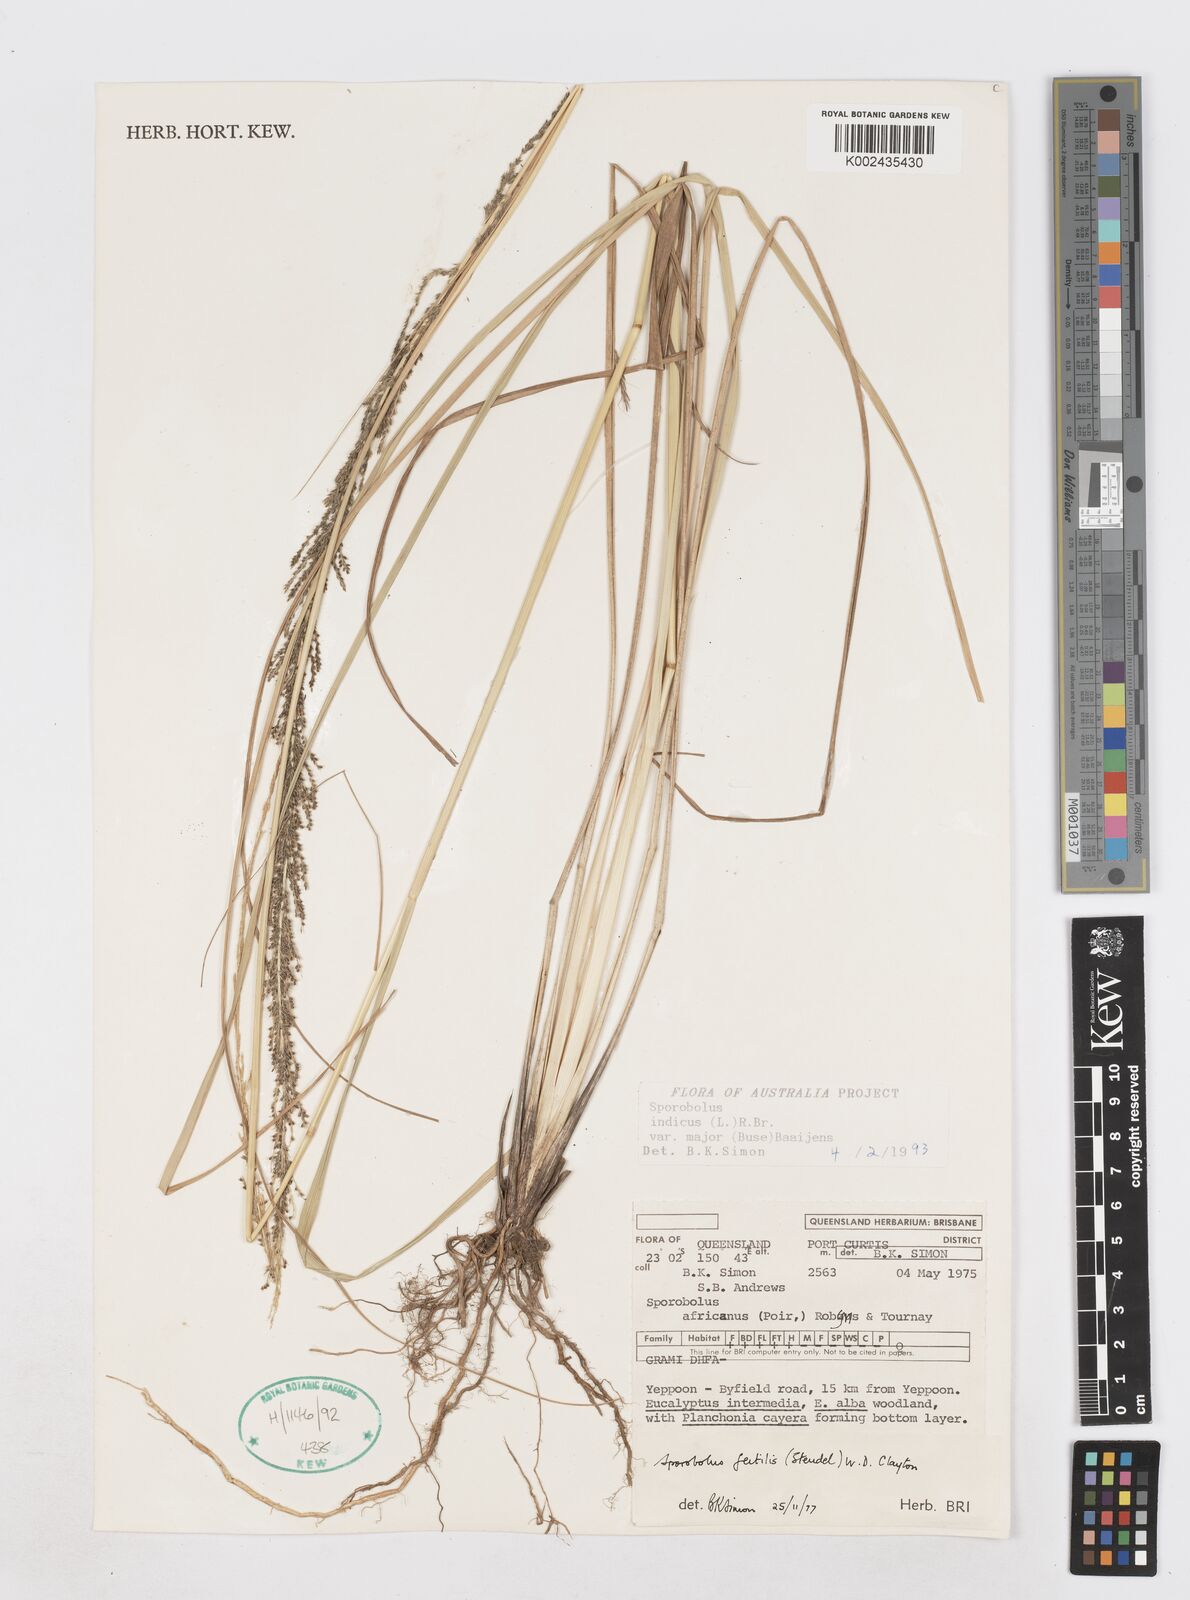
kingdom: Plantae
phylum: Tracheophyta
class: Liliopsida
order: Poales
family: Poaceae
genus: Sporobolus
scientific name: Sporobolus fertilis
